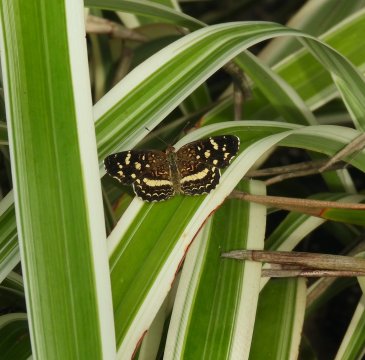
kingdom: Animalia
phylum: Arthropoda
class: Insecta
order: Lepidoptera
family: Nymphalidae
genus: Anthanassa
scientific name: Anthanassa tulcis
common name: Pale-banded Crescent
